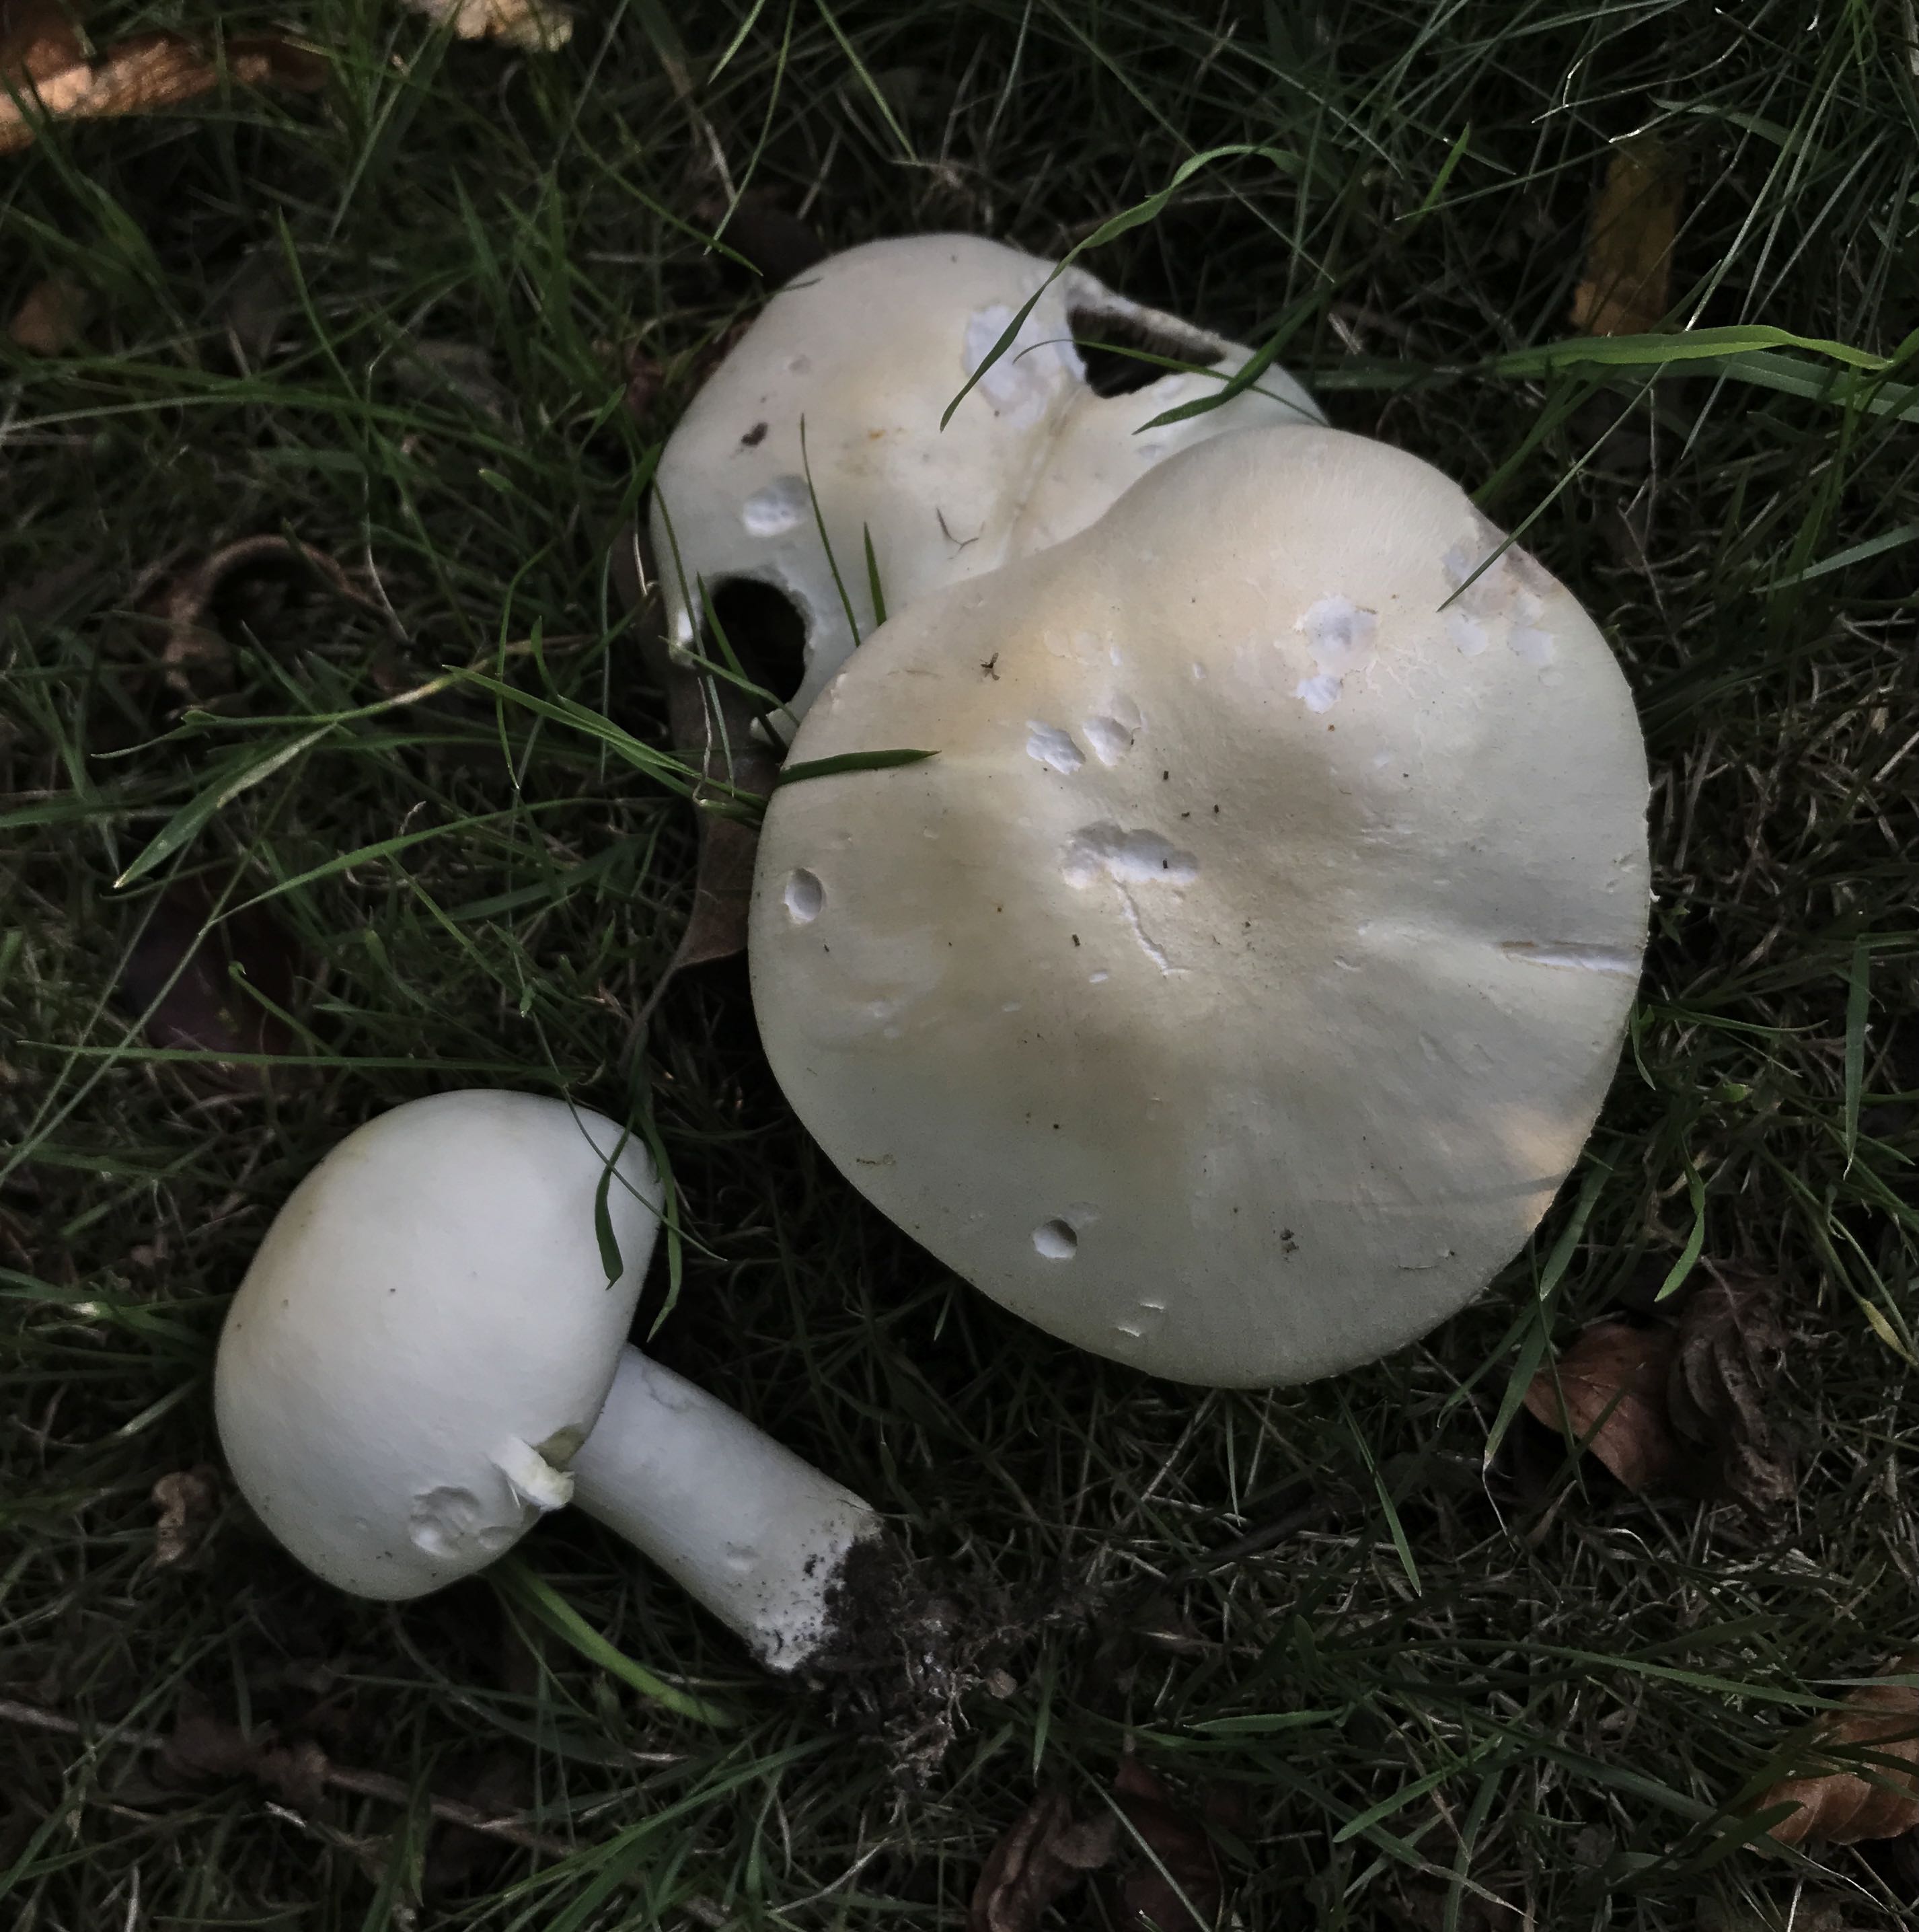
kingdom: Fungi
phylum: Basidiomycota
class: Agaricomycetes
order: Agaricales
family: Agaricaceae
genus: Agaricus
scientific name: Agaricus arvensis
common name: ager-champignon
